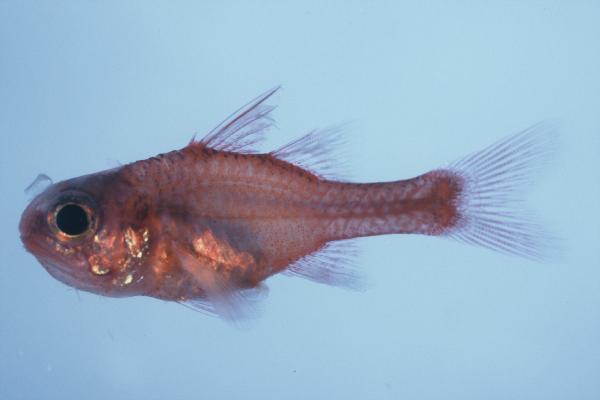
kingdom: Animalia
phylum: Chordata
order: Perciformes
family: Apogonidae
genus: Apogon
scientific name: Apogon campbelli
